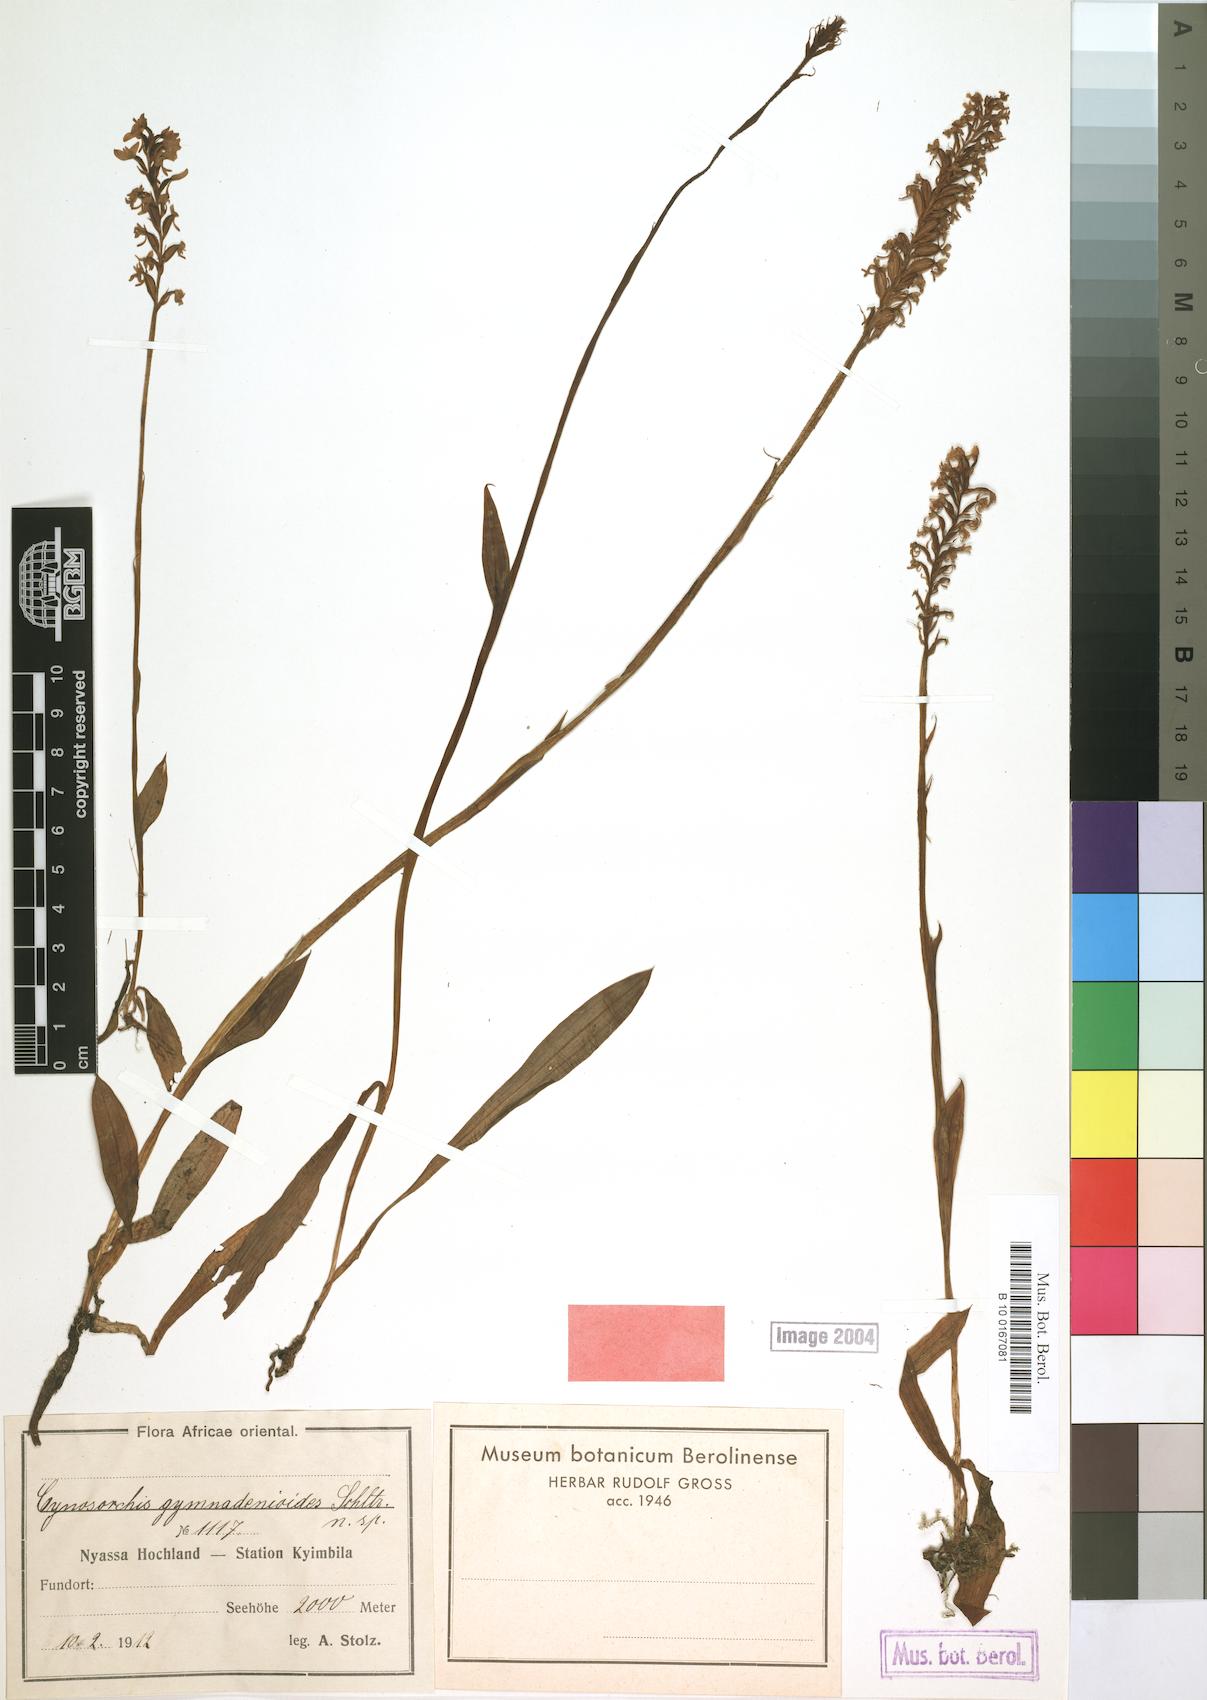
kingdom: Plantae
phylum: Tracheophyta
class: Liliopsida
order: Asparagales
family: Orchidaceae
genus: Cynorkis
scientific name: Cynorkis
